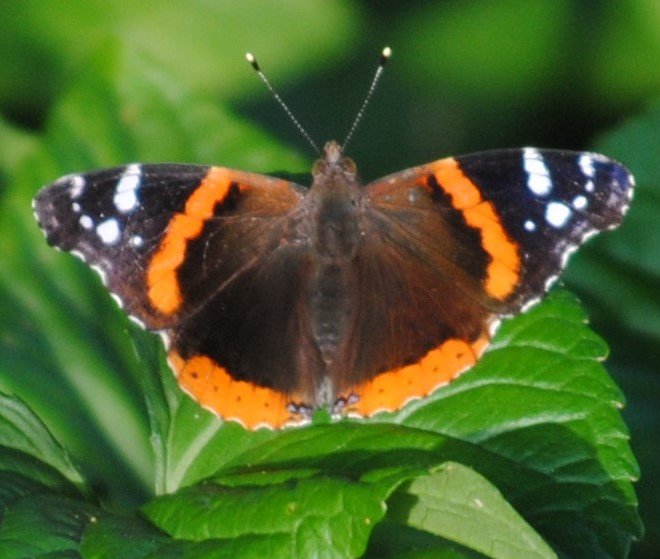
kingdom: Animalia
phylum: Arthropoda
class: Insecta
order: Lepidoptera
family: Nymphalidae
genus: Vanessa
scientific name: Vanessa atalanta
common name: Red Admiral
